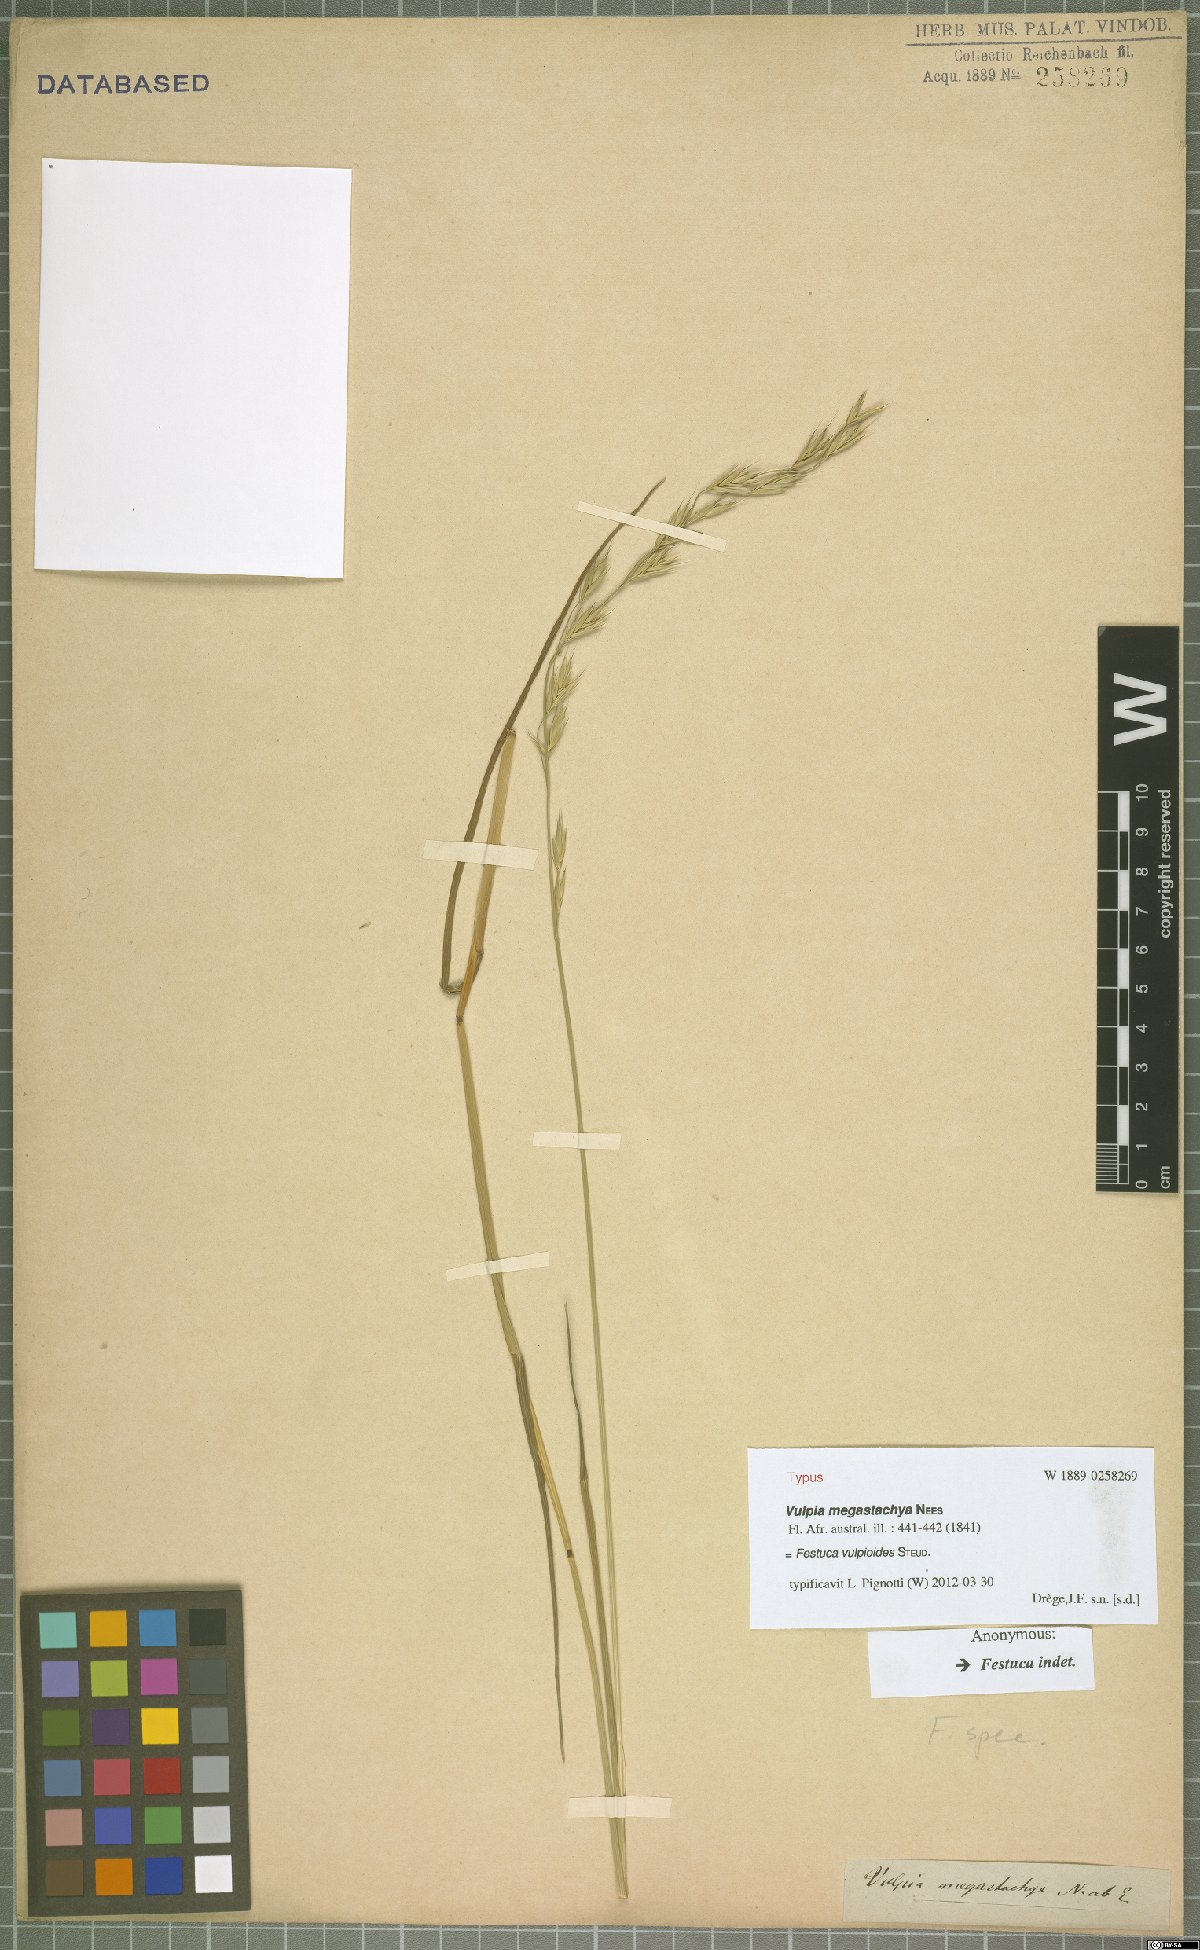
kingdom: Plantae
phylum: Tracheophyta
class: Liliopsida
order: Poales
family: Poaceae
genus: Festuca
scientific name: Festuca vulpioides
